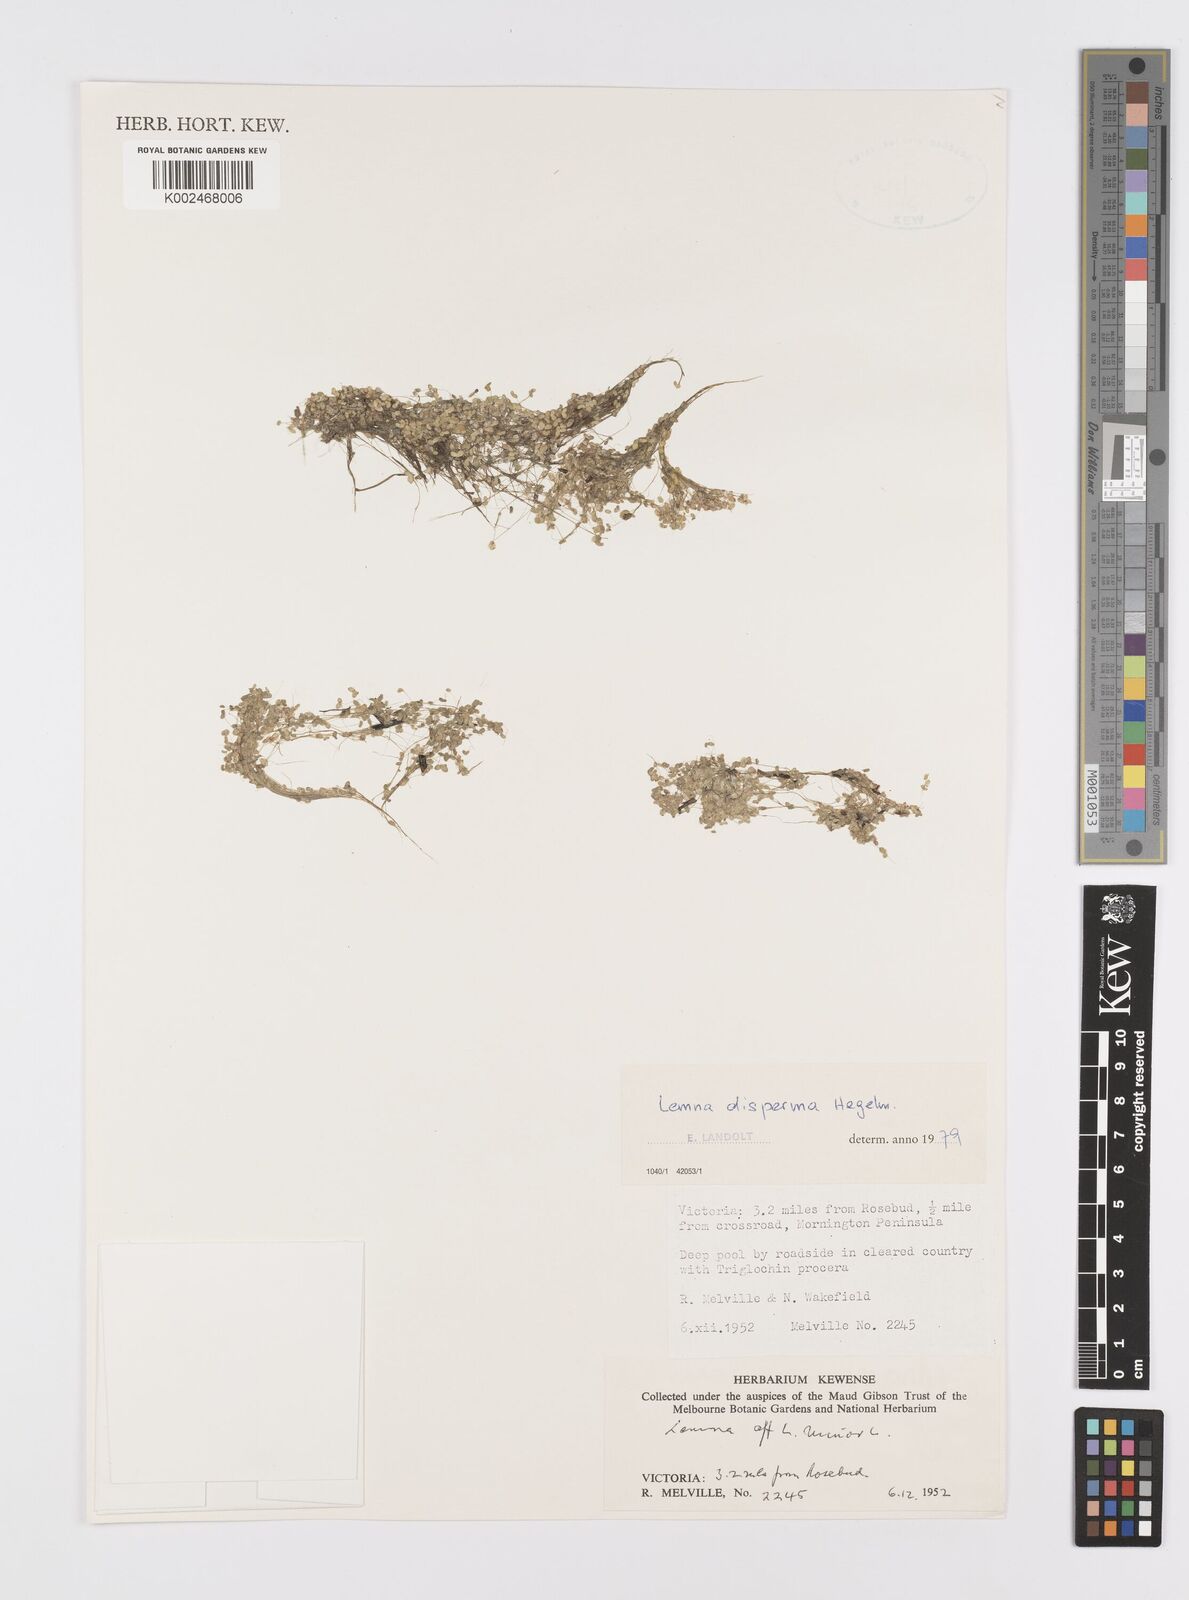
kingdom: Plantae
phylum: Tracheophyta
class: Liliopsida
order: Alismatales
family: Araceae
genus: Lemna
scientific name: Lemna disperma
